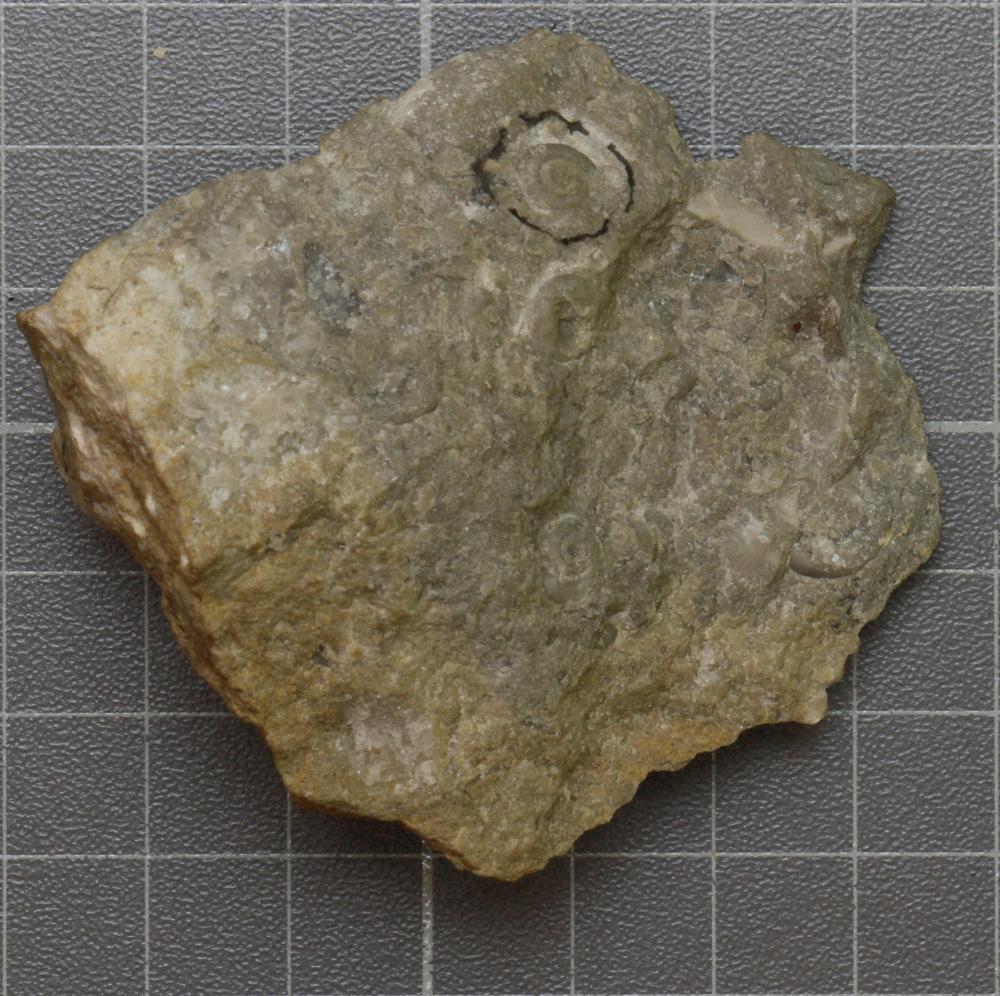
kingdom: Animalia
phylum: Mollusca
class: Gastropoda
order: Neogastropoda
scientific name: Neogastropoda
